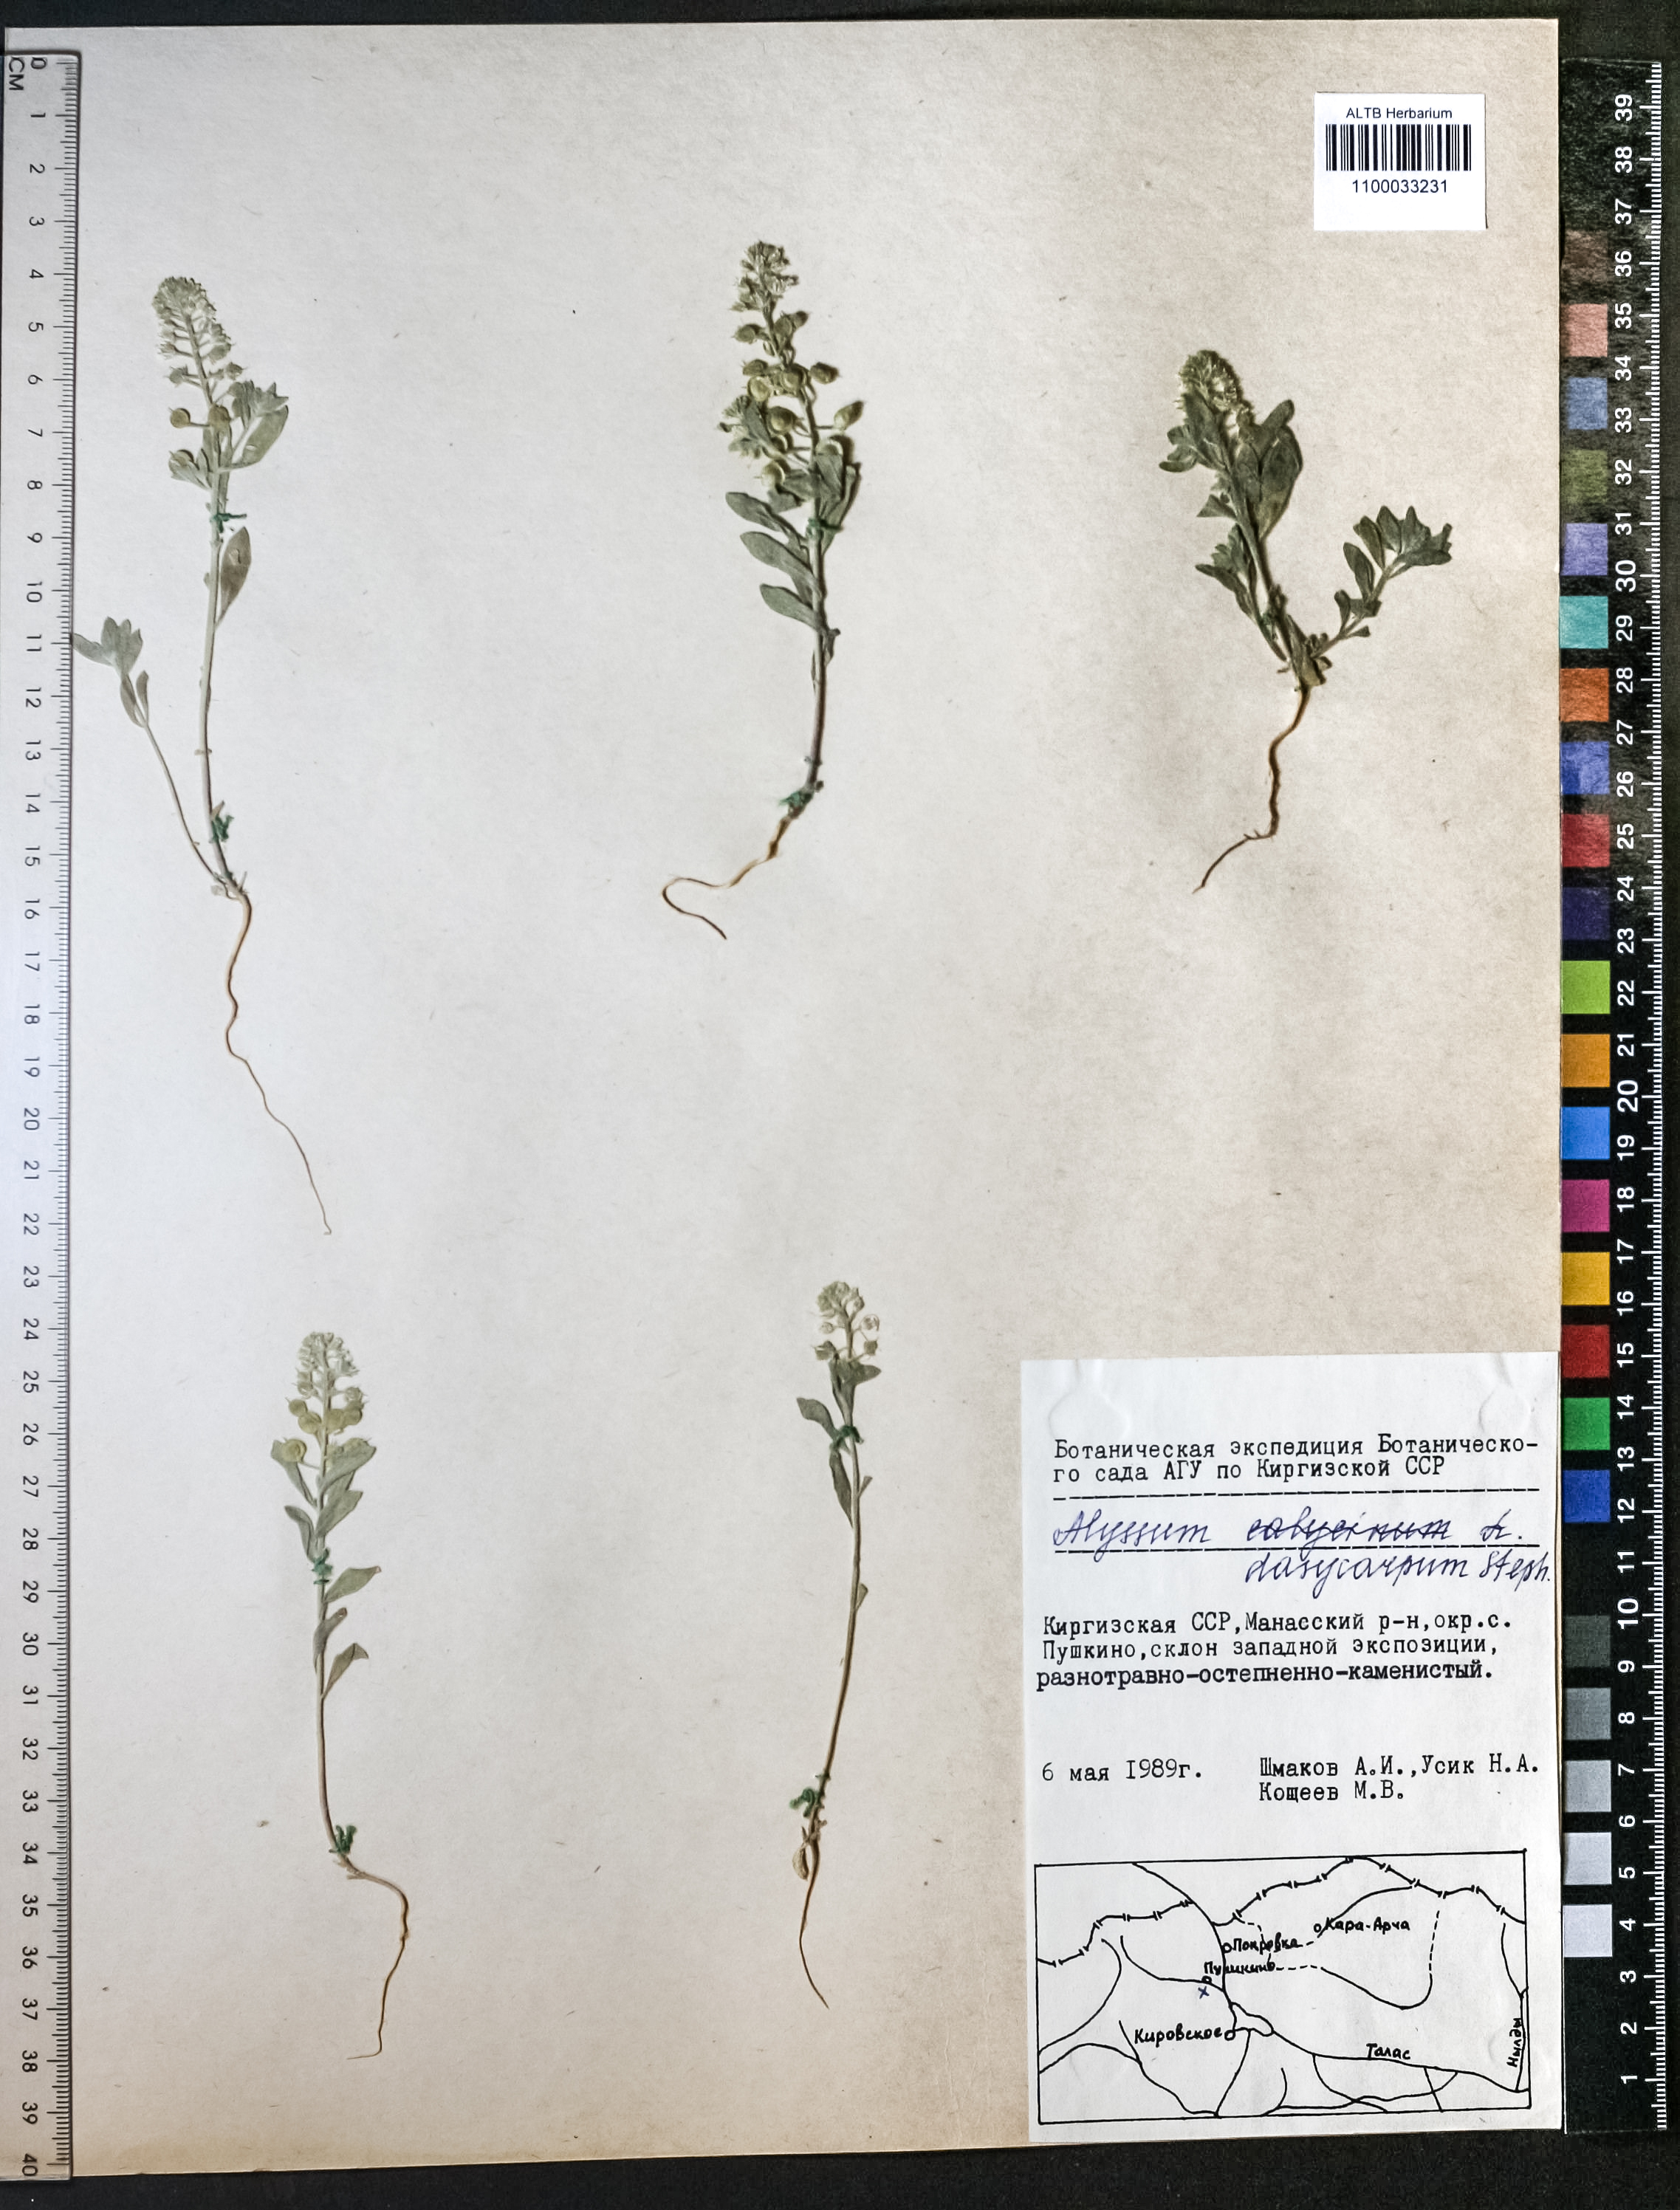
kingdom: Plantae
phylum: Tracheophyta
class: Magnoliopsida
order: Brassicales
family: Brassicaceae
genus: Alyssum
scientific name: Alyssum dasycarpum
